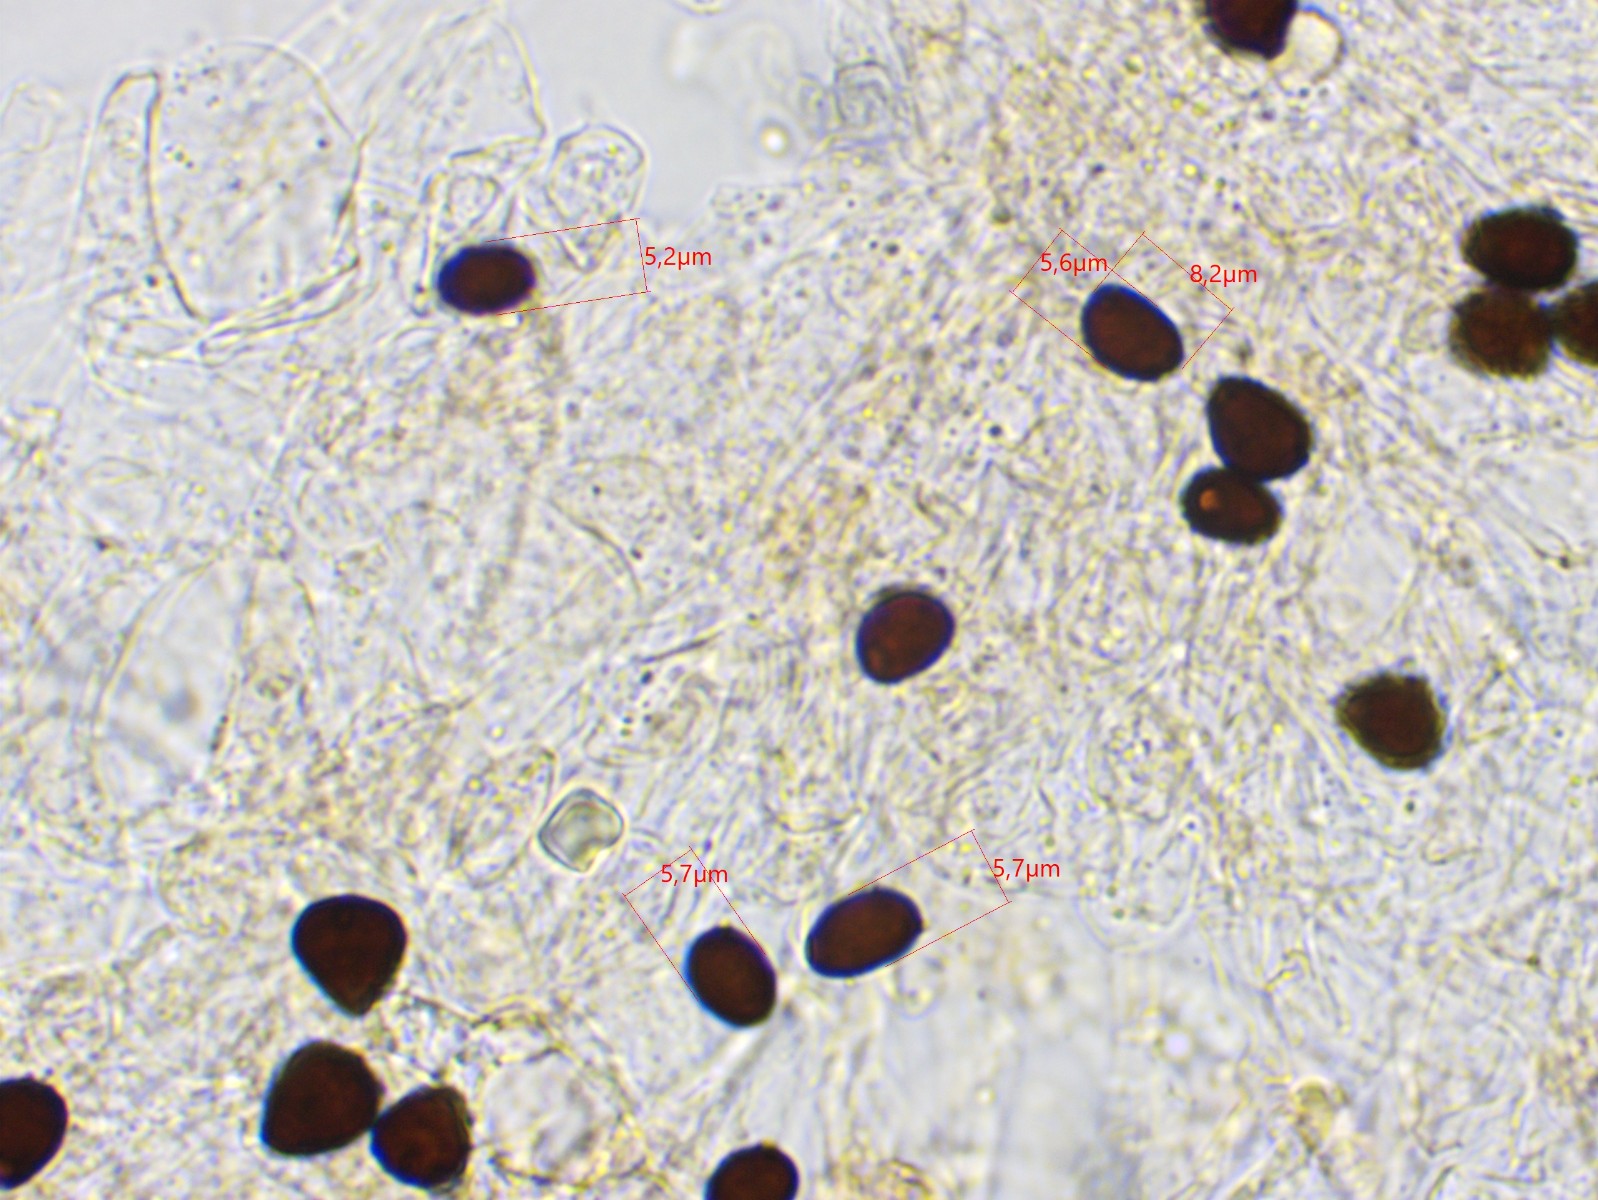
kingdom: Fungi
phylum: Basidiomycota
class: Agaricomycetes
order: Agaricales
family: Psathyrellaceae
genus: Parasola
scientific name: Parasola
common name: hjulhat
